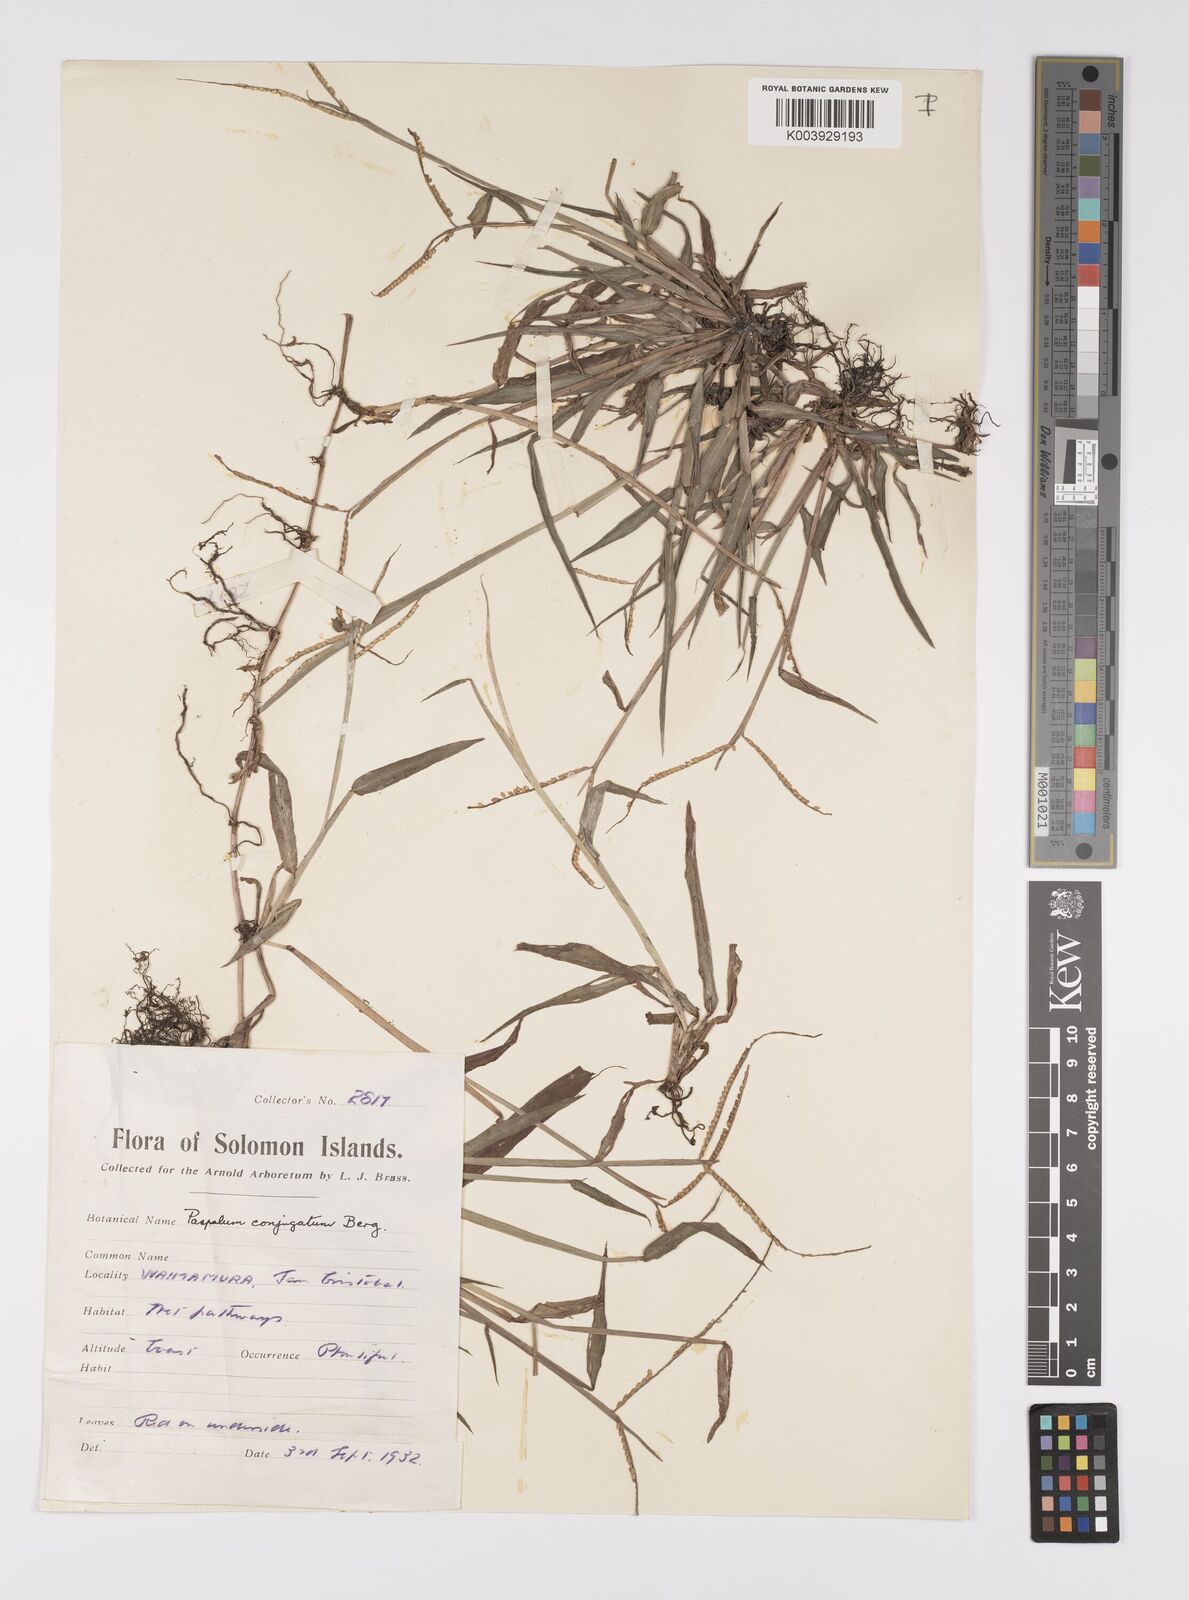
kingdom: Plantae
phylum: Tracheophyta
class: Liliopsida
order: Poales
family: Poaceae
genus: Paspalum
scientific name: Paspalum conjugatum
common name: Hilograss
